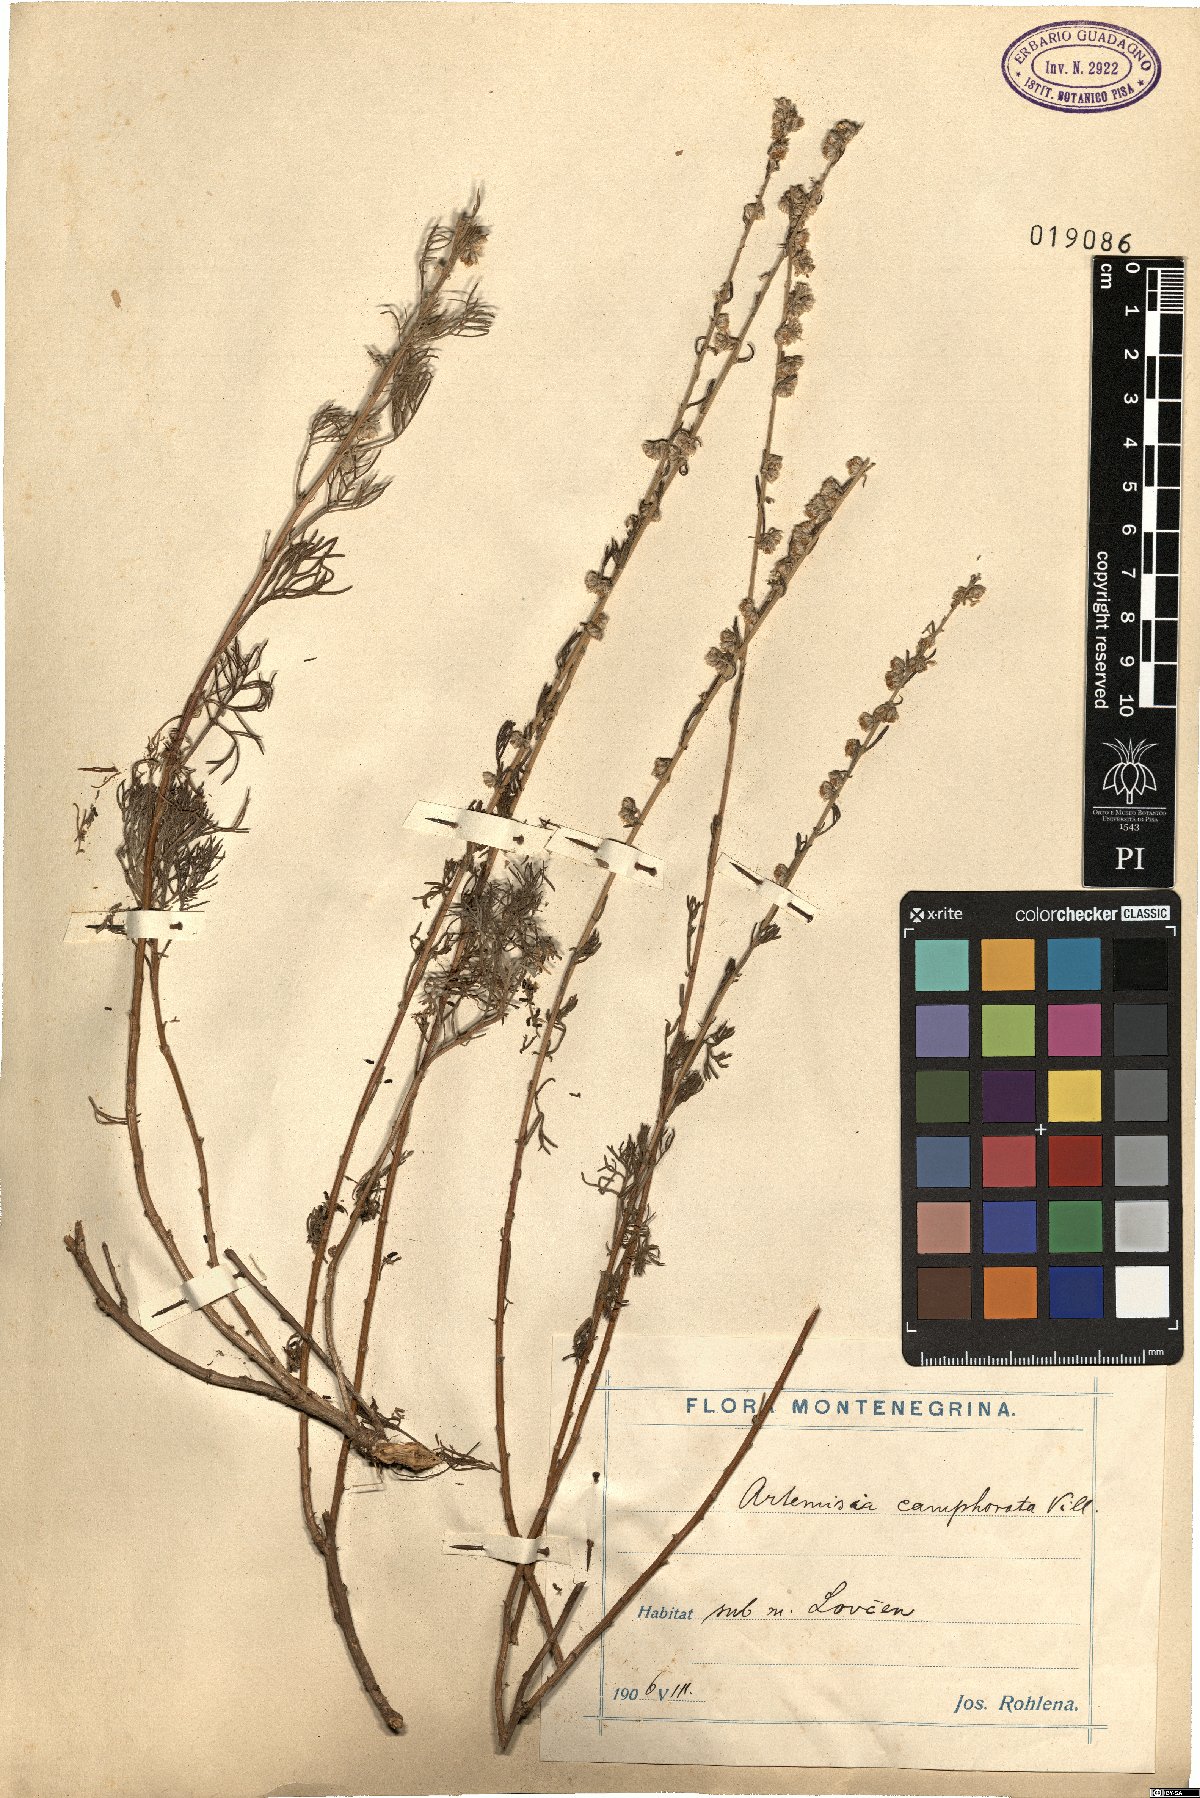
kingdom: Plantae
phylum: Tracheophyta
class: Magnoliopsida
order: Asterales
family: Asteraceae
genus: Artemisia
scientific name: Artemisia alba
